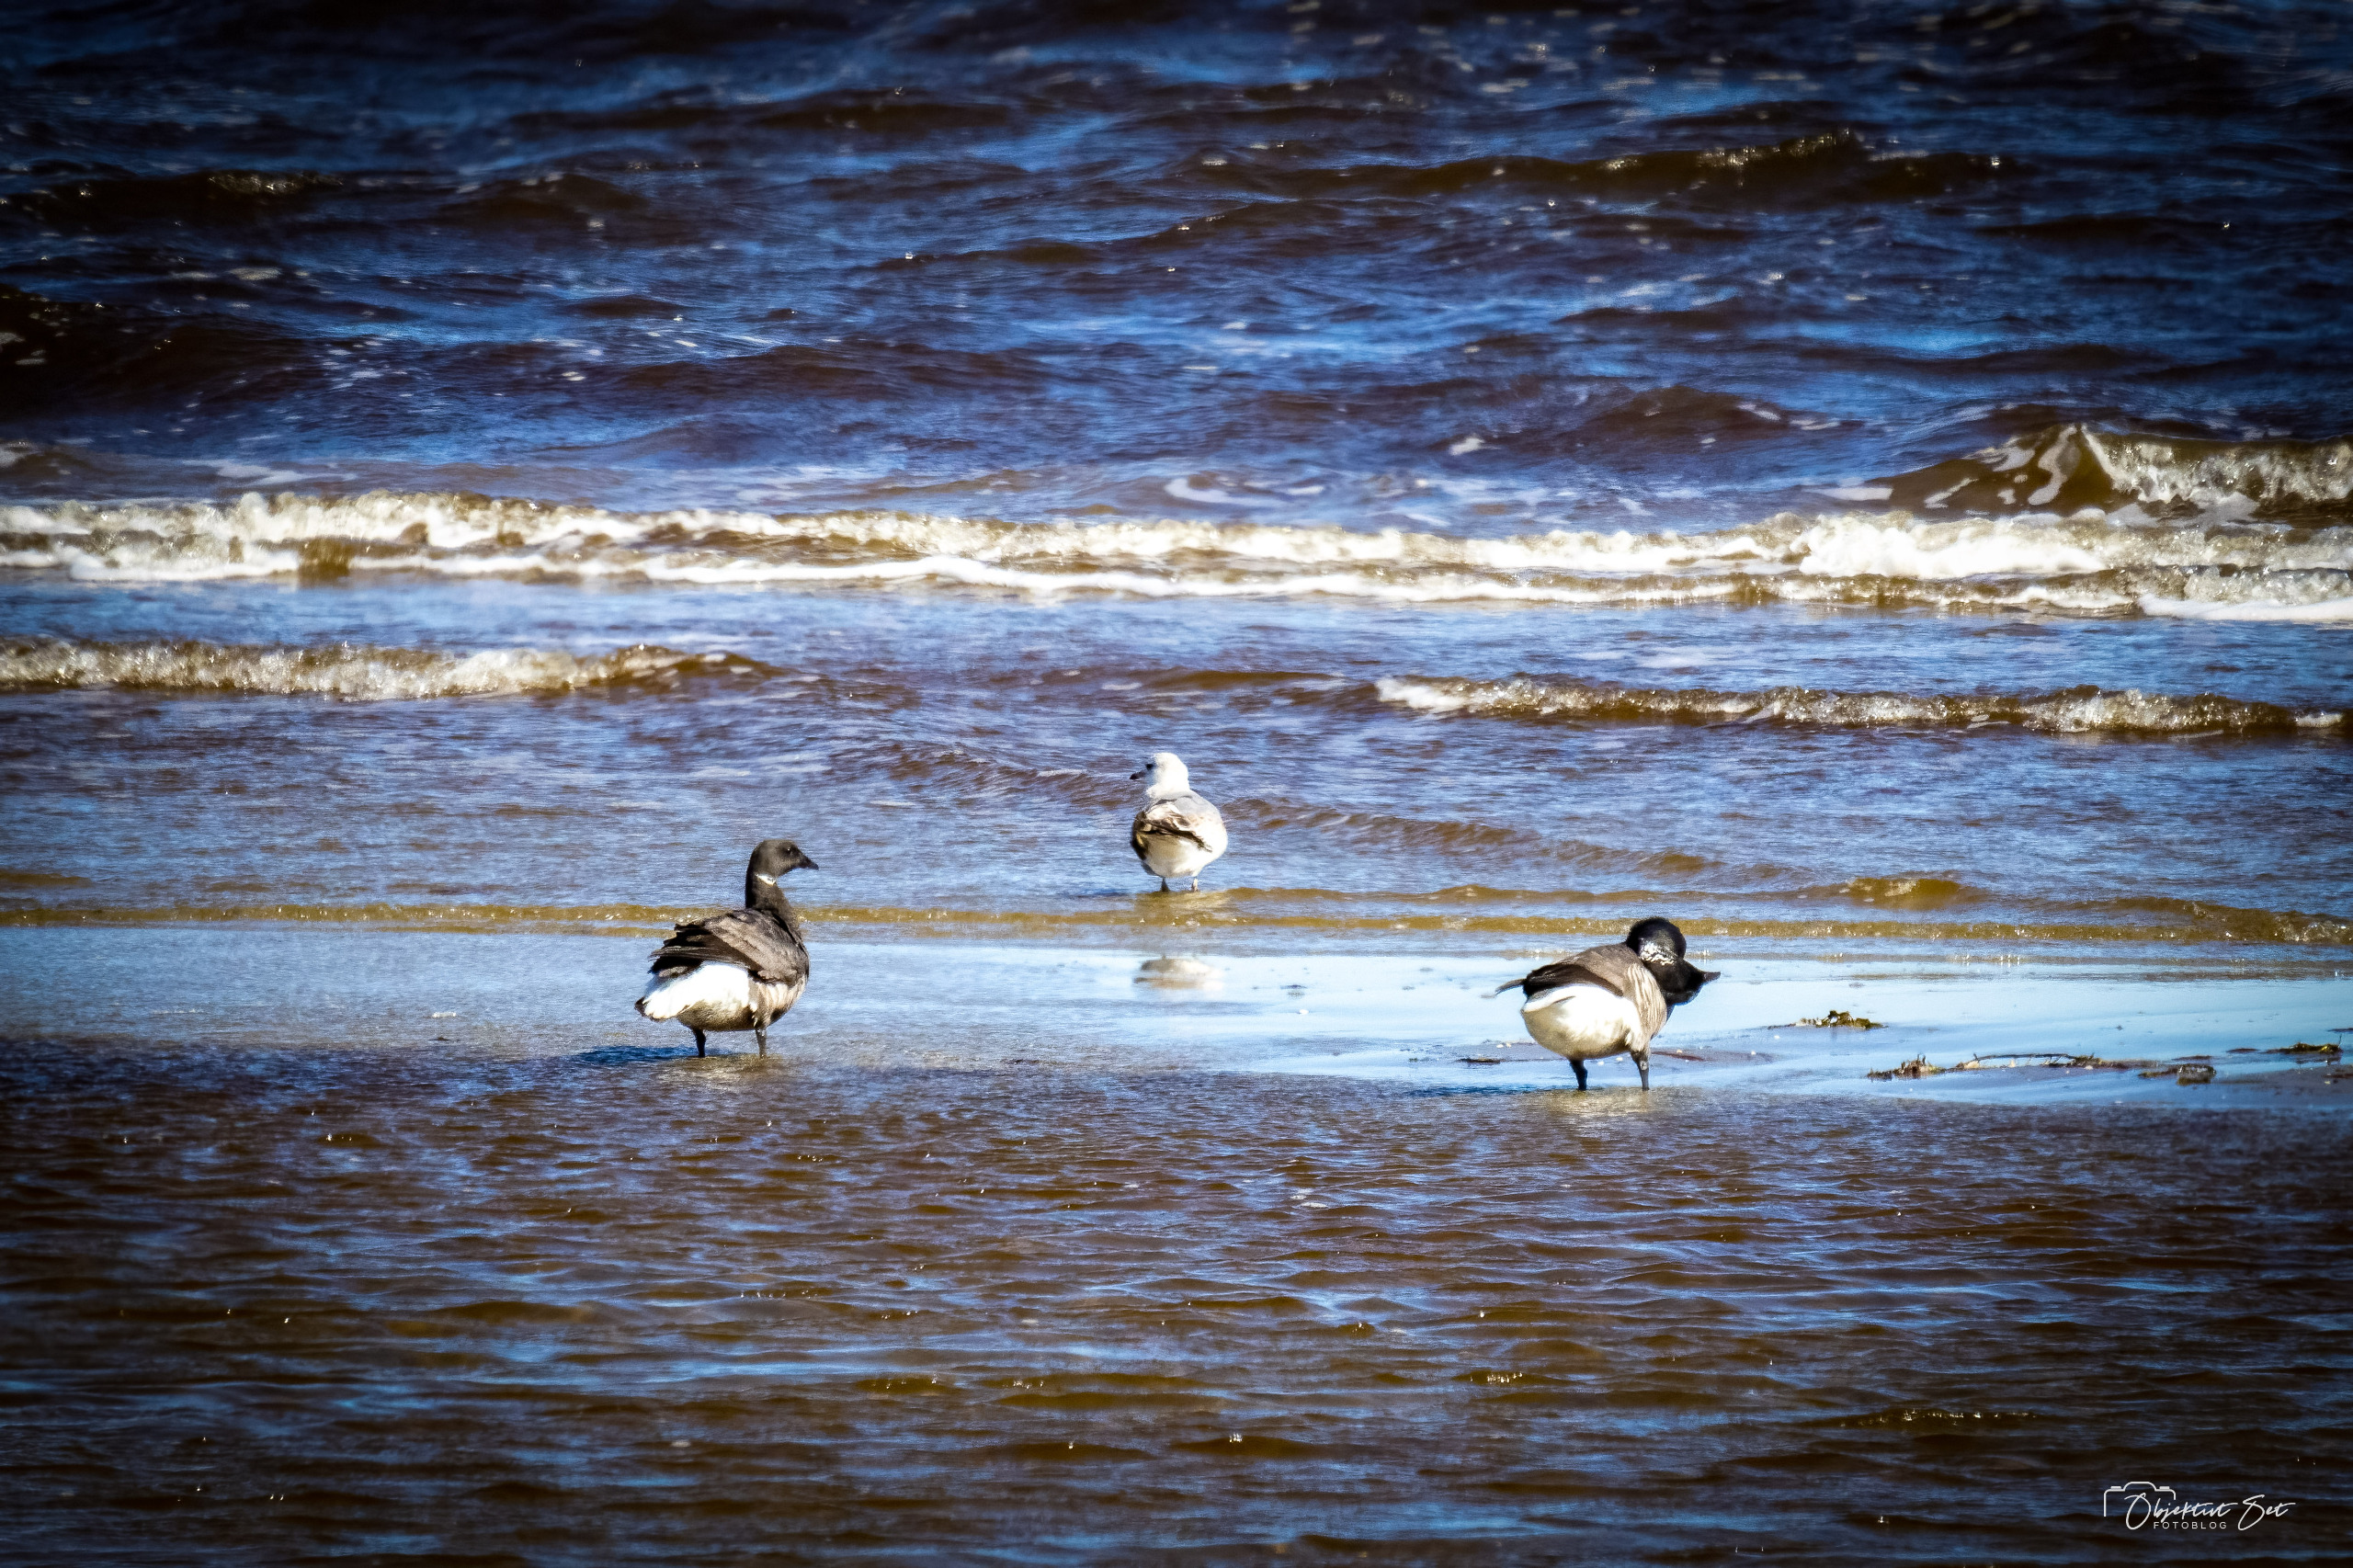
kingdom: Animalia
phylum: Chordata
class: Aves
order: Anseriformes
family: Anatidae
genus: Branta
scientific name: Branta bernicla
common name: Knortegås
